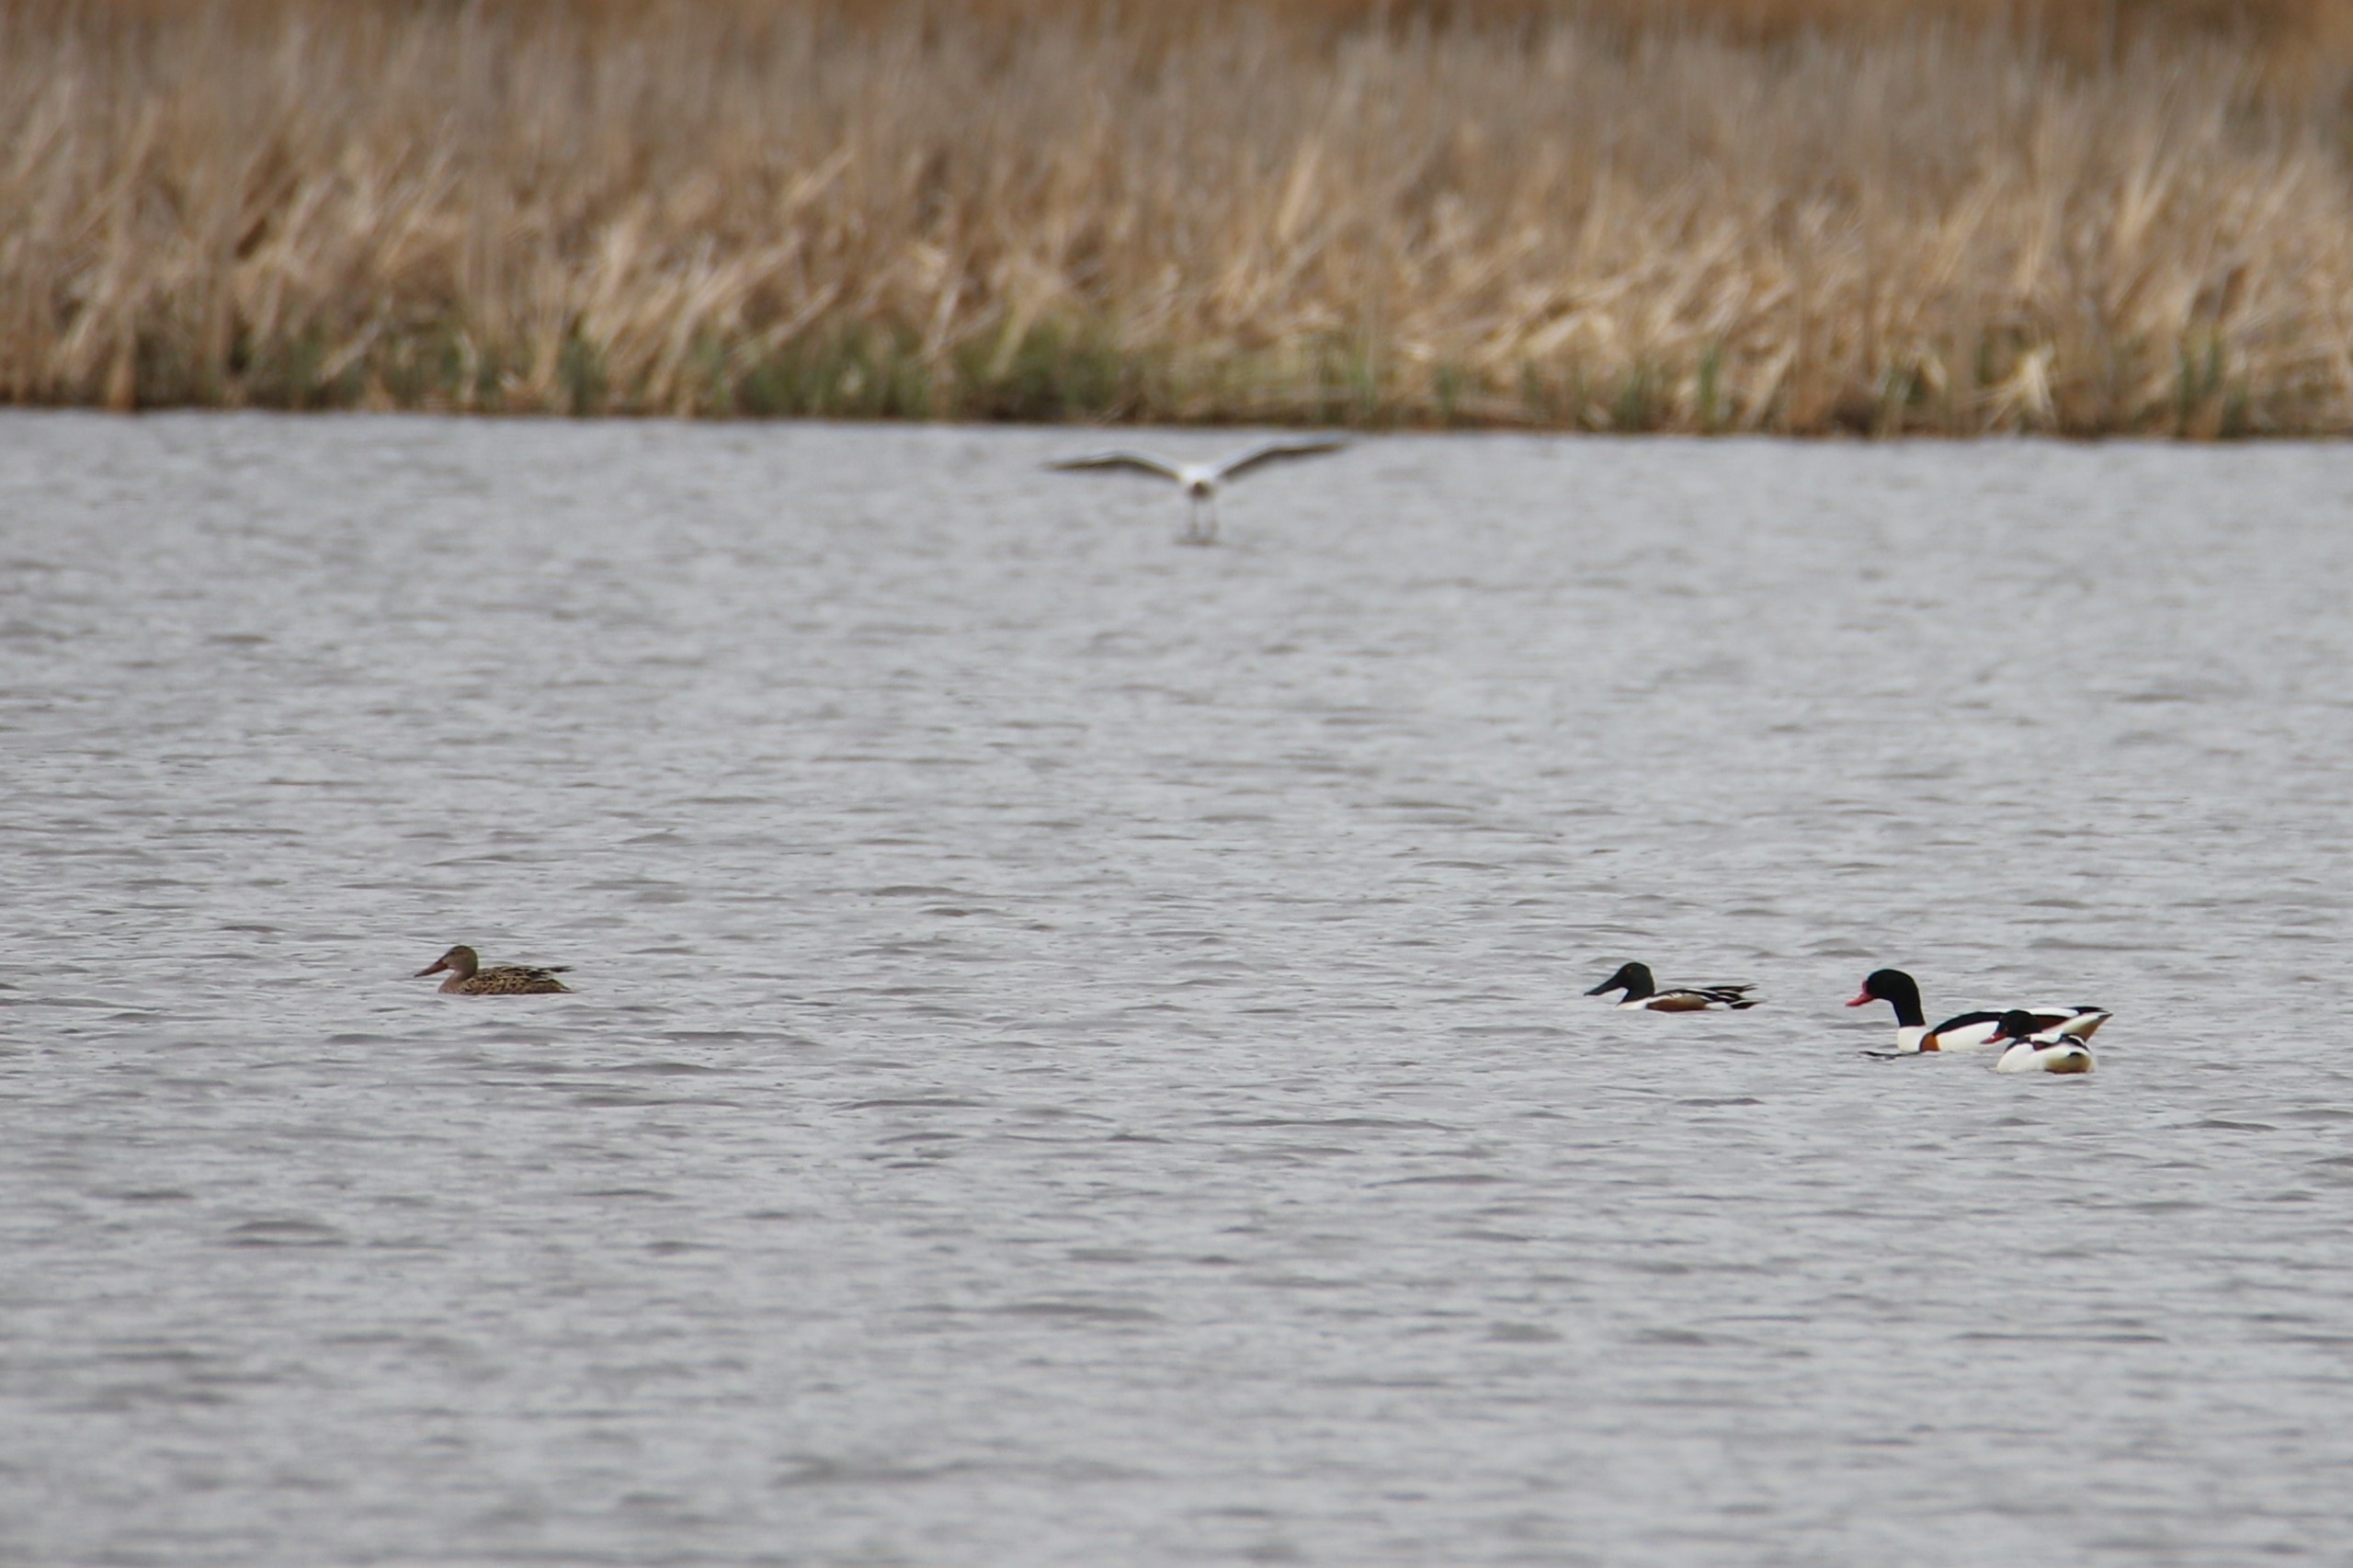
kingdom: Animalia
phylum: Chordata
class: Aves
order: Anseriformes
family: Anatidae
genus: Spatula
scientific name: Spatula clypeata
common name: Skeand
